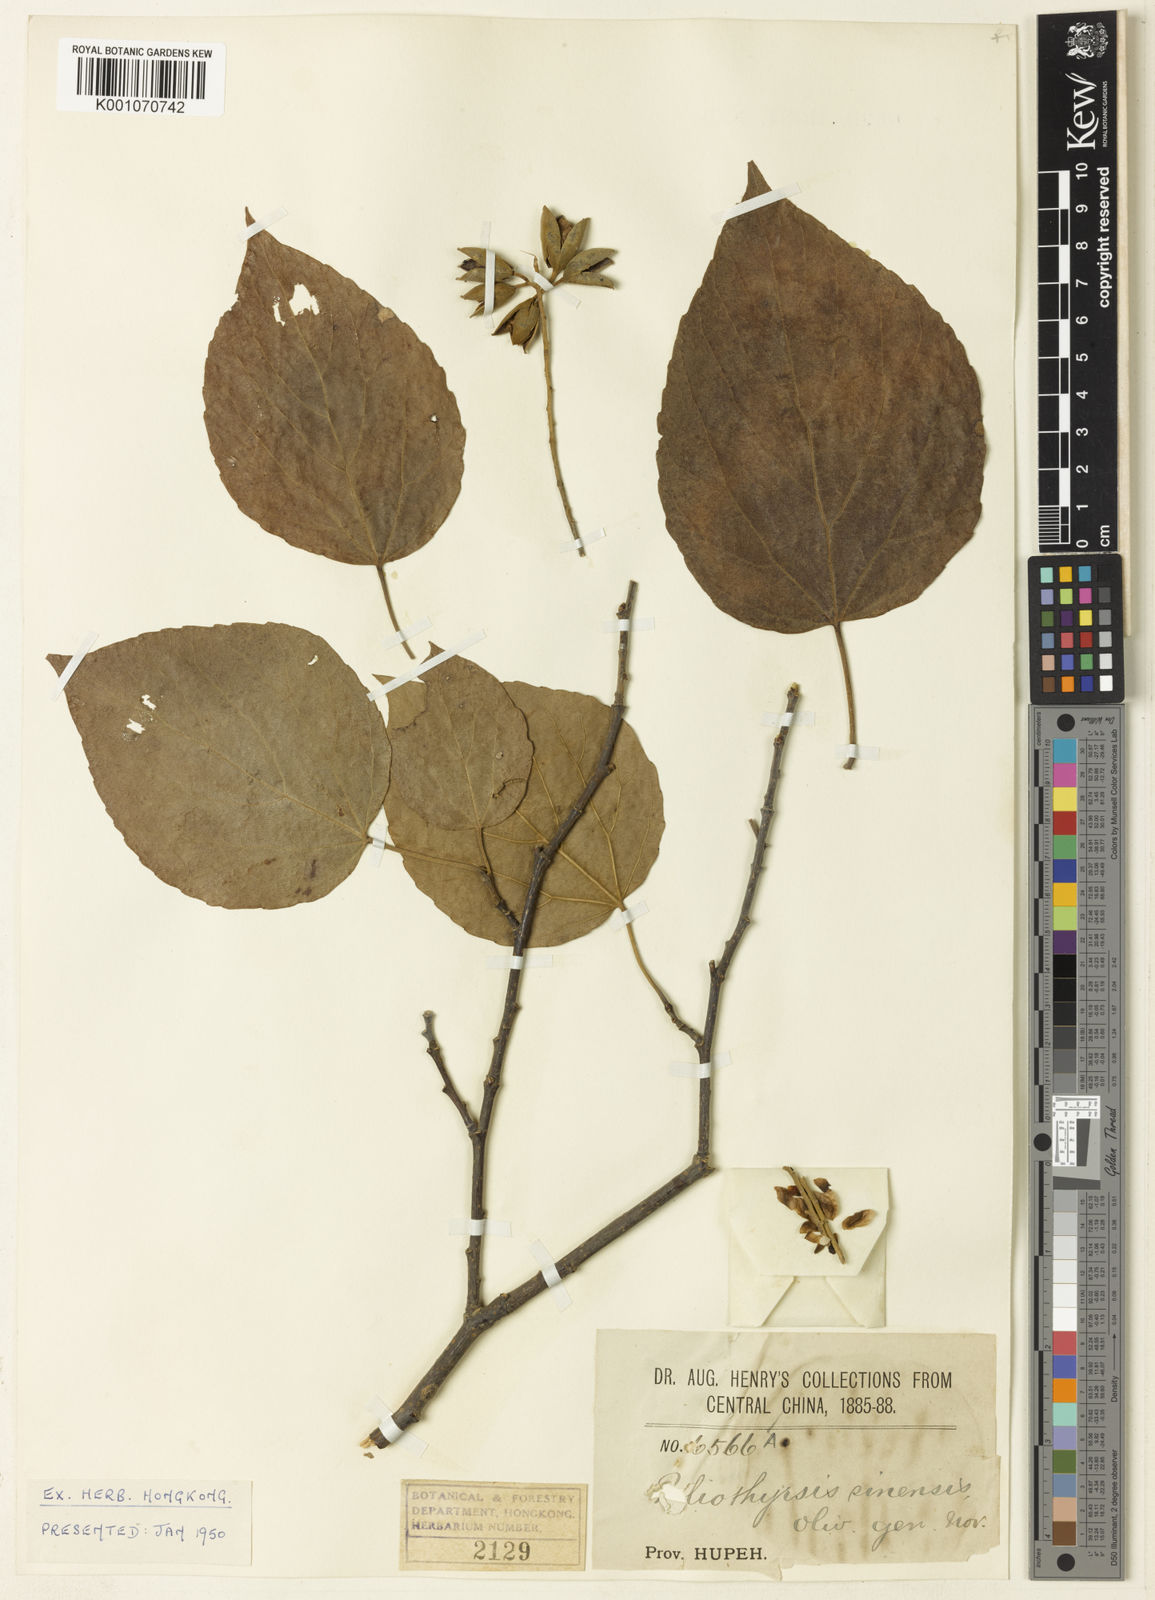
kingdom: Plantae
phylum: Tracheophyta
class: Magnoliopsida
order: Malpighiales
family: Salicaceae
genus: Poliothyrsis
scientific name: Poliothyrsis
